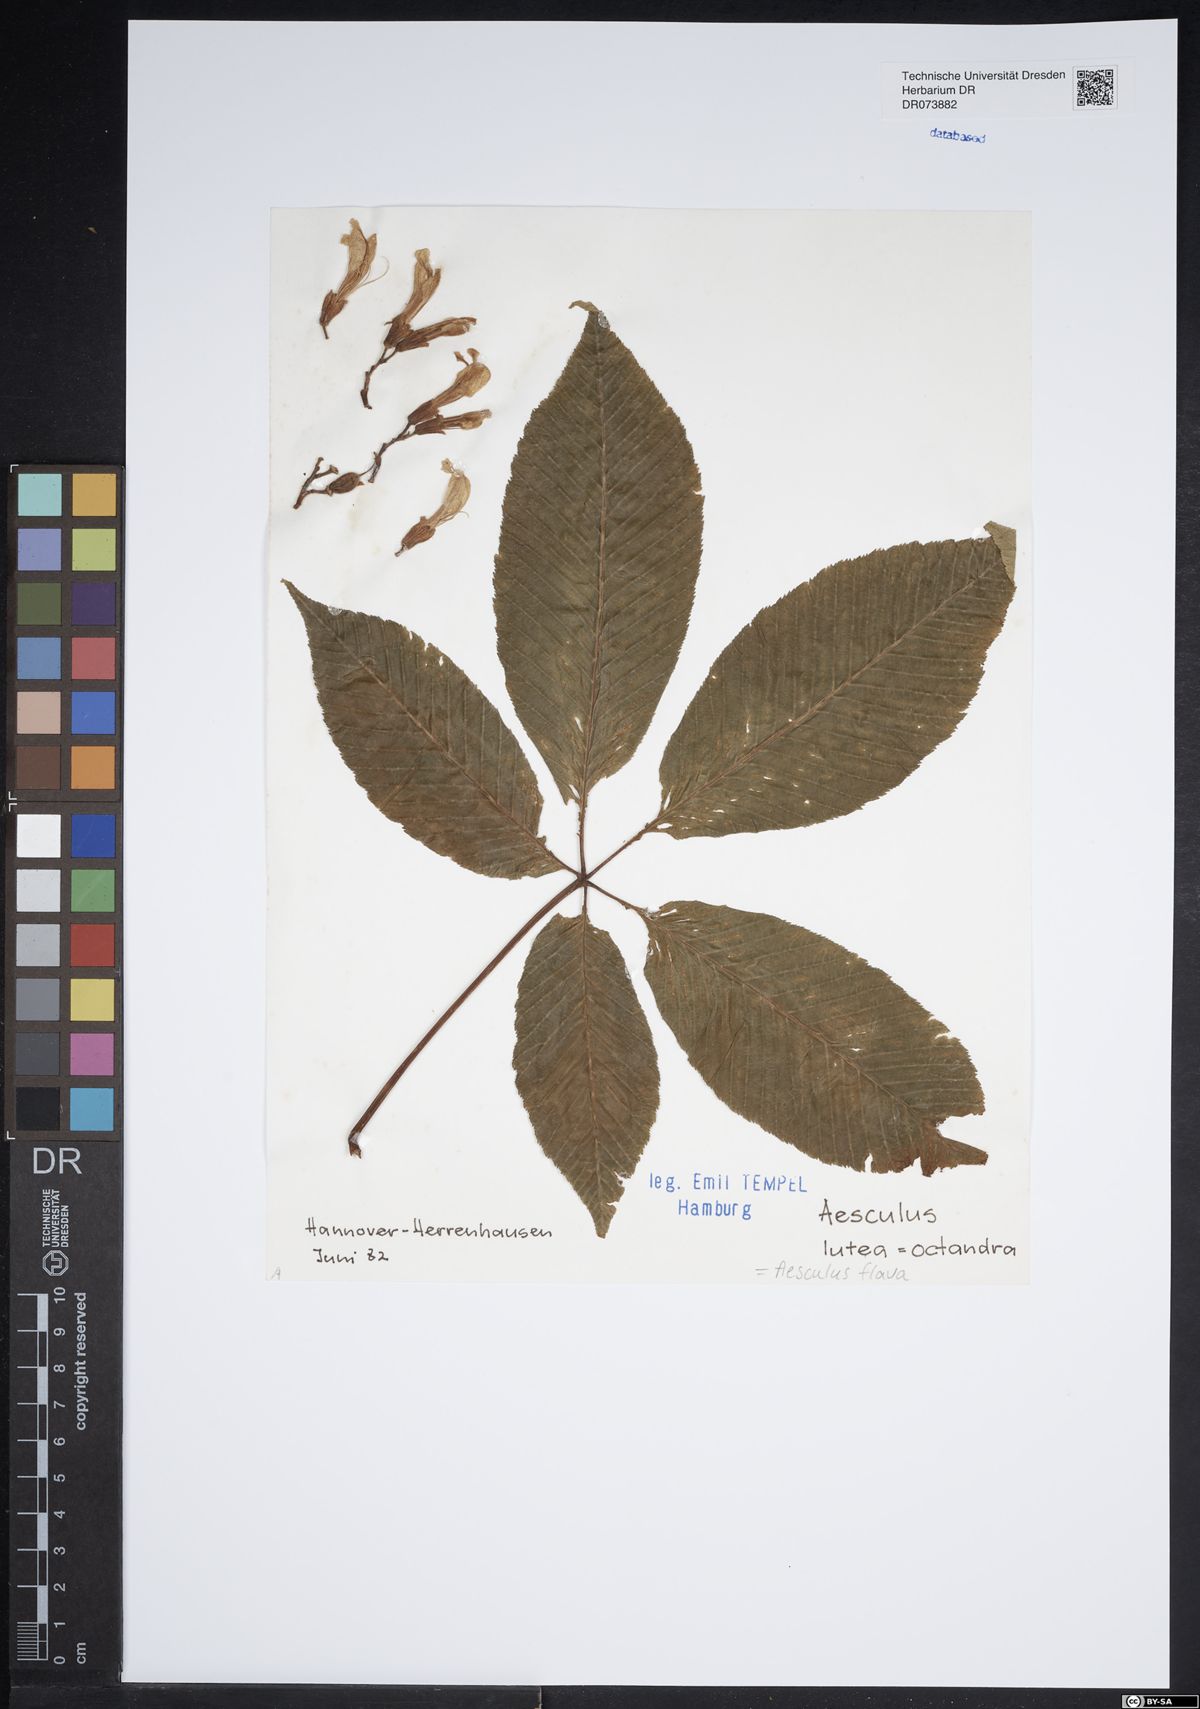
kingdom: Plantae
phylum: Tracheophyta
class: Magnoliopsida
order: Sapindales
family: Sapindaceae
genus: Aesculus
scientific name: Aesculus flava
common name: Yellow buckeye
